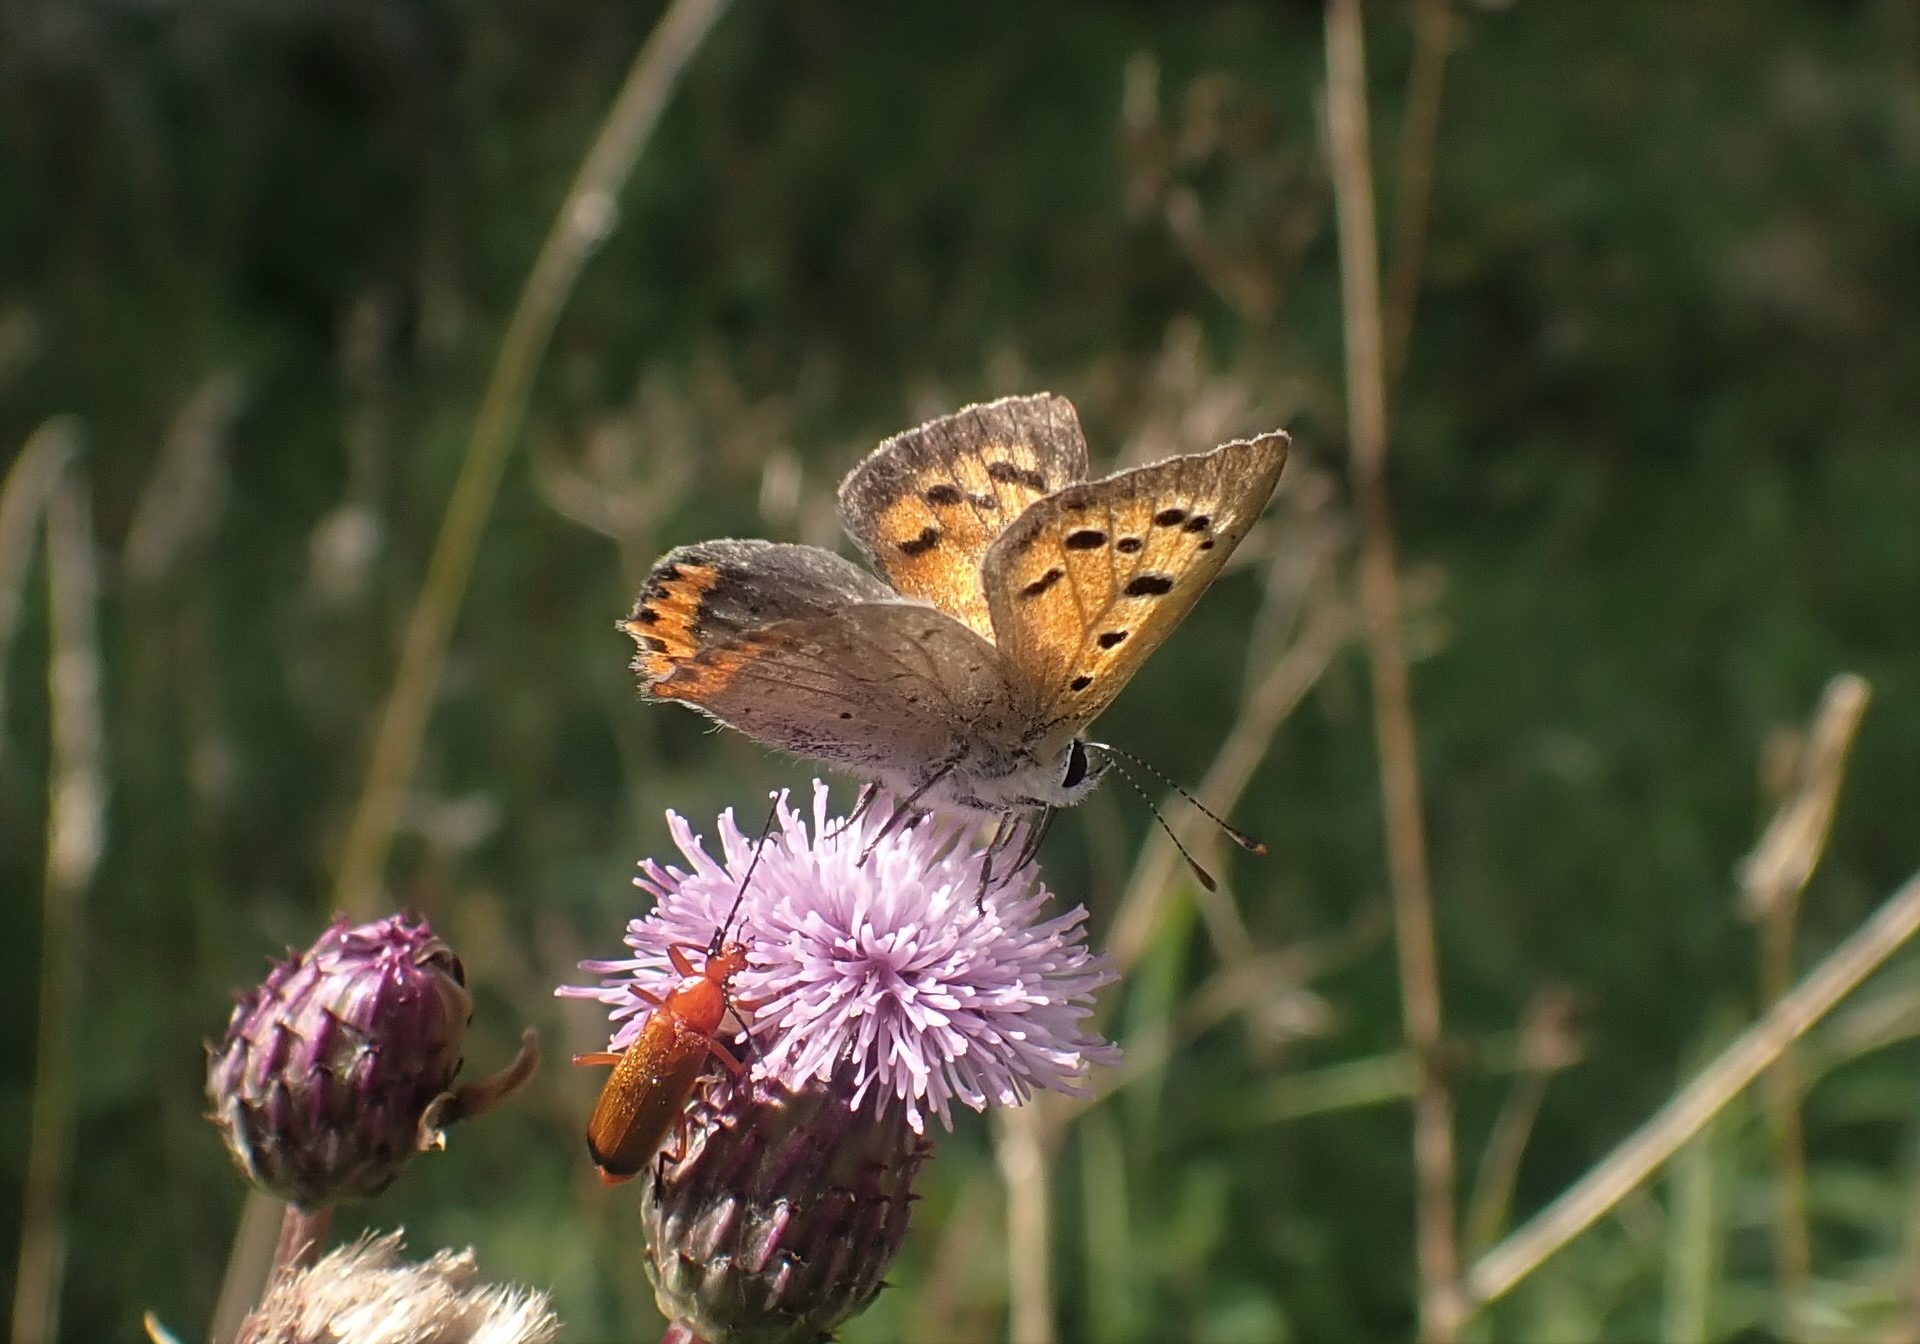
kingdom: Animalia
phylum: Arthropoda
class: Insecta
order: Lepidoptera
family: Lycaenidae
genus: Lycaena
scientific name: Lycaena phlaeas
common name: Lille ildfugl
